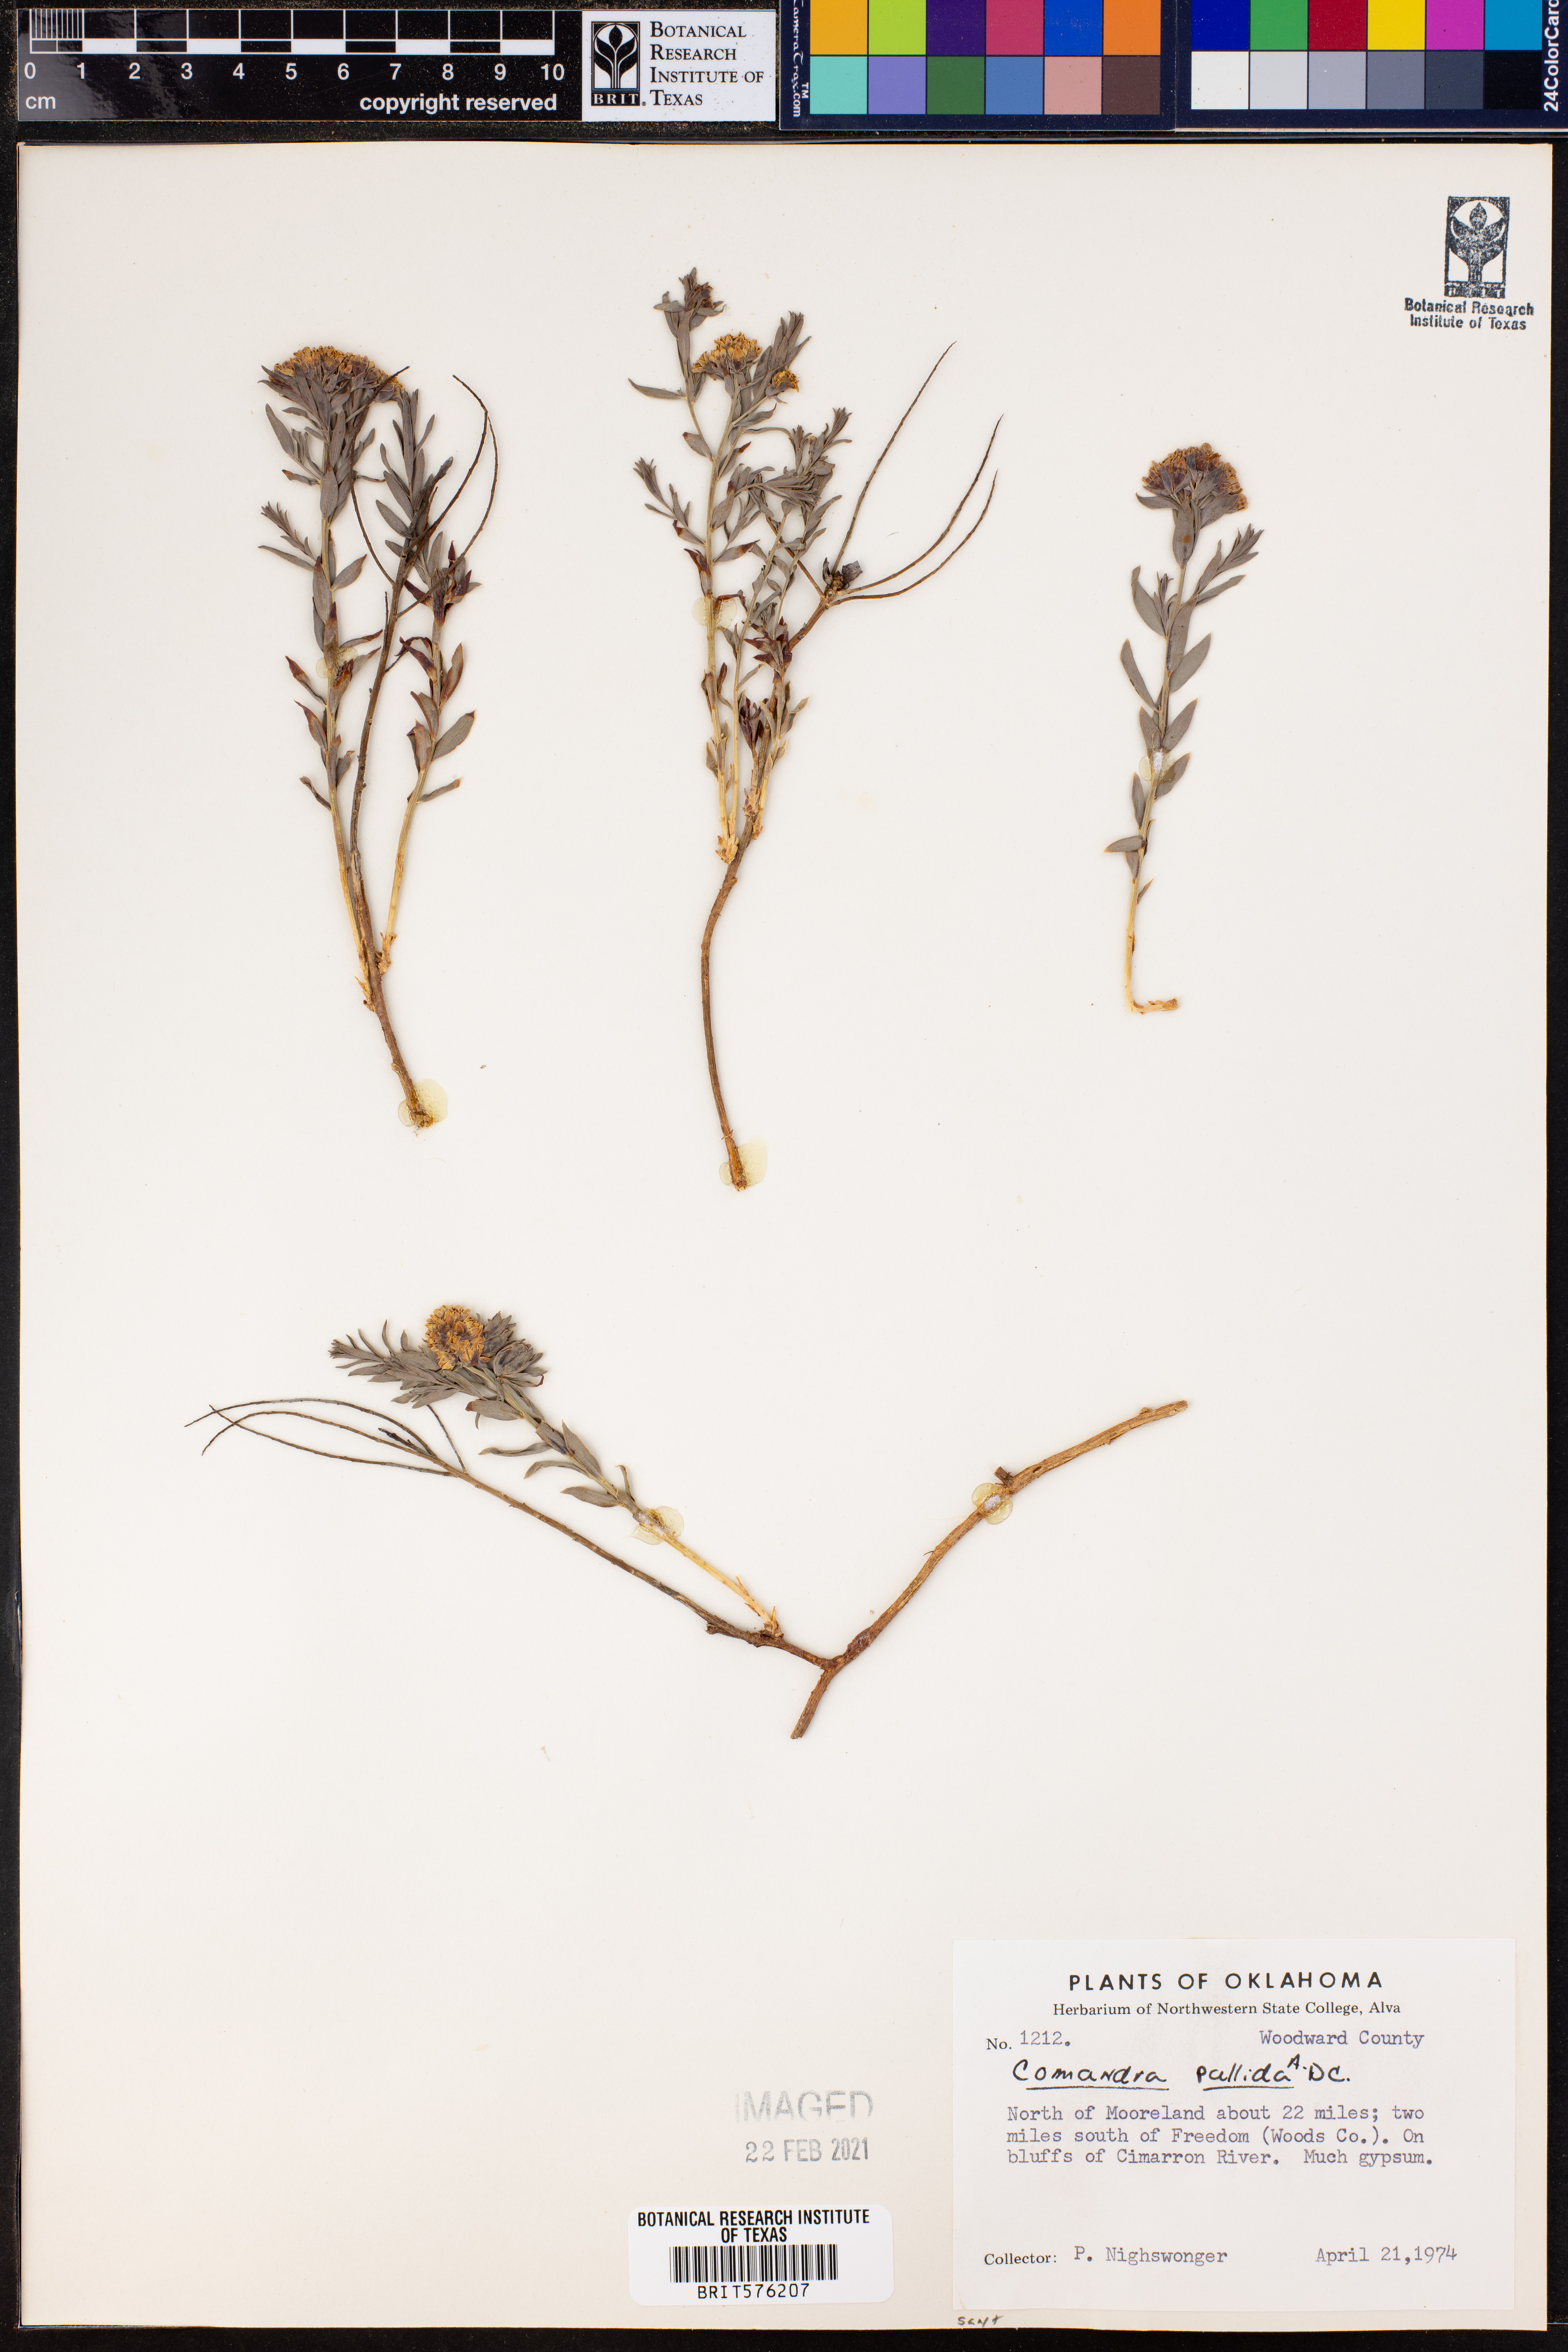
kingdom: Plantae
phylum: Tracheophyta
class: Magnoliopsida
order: Santalales
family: Comandraceae
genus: Comandra
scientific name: Comandra umbellata
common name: Bastard toadflax
